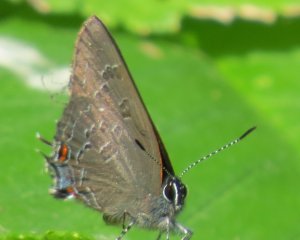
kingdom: Animalia
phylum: Arthropoda
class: Insecta
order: Lepidoptera
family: Lycaenidae
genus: Strymon
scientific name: Strymon caryaevorus
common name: Hickory Hairstreak
